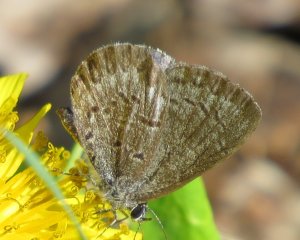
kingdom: Animalia
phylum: Arthropoda
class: Insecta
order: Lepidoptera
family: Lycaenidae
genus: Celastrina
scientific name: Celastrina lucia
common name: Northern Spring Azure
